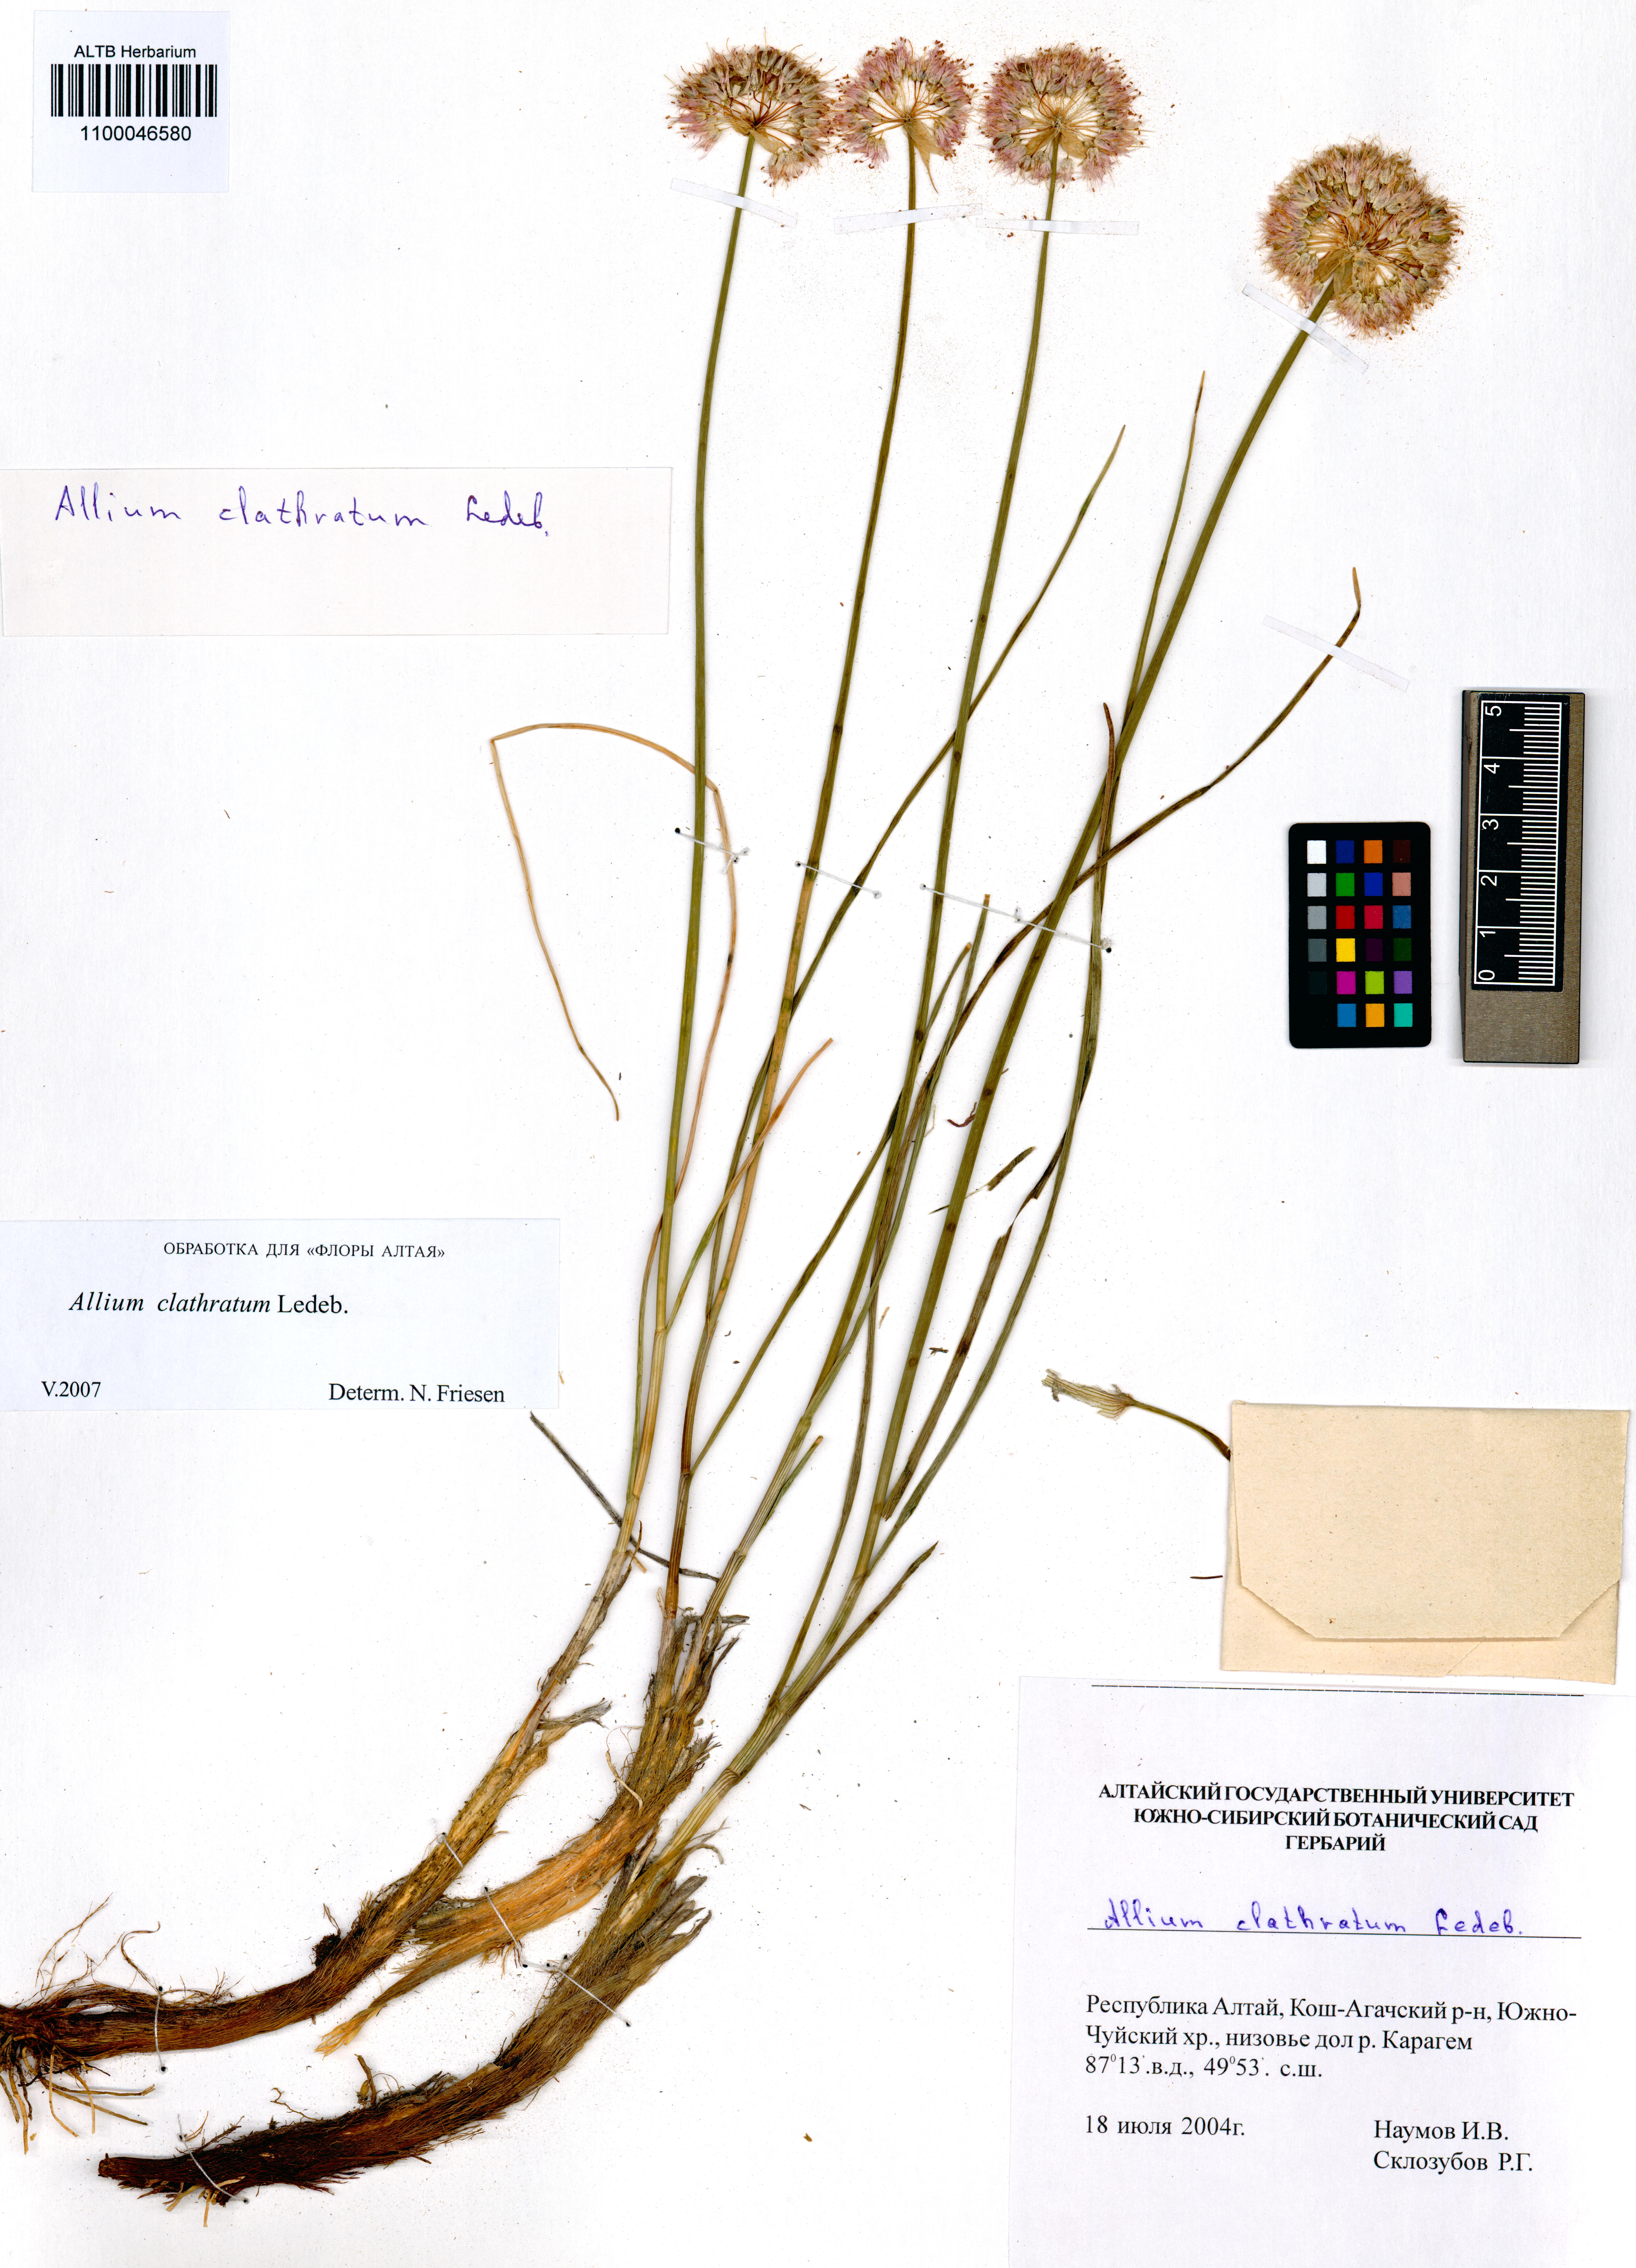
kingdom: Plantae
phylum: Tracheophyta
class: Liliopsida
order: Asparagales
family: Amaryllidaceae
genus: Allium
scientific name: Allium clathratum
